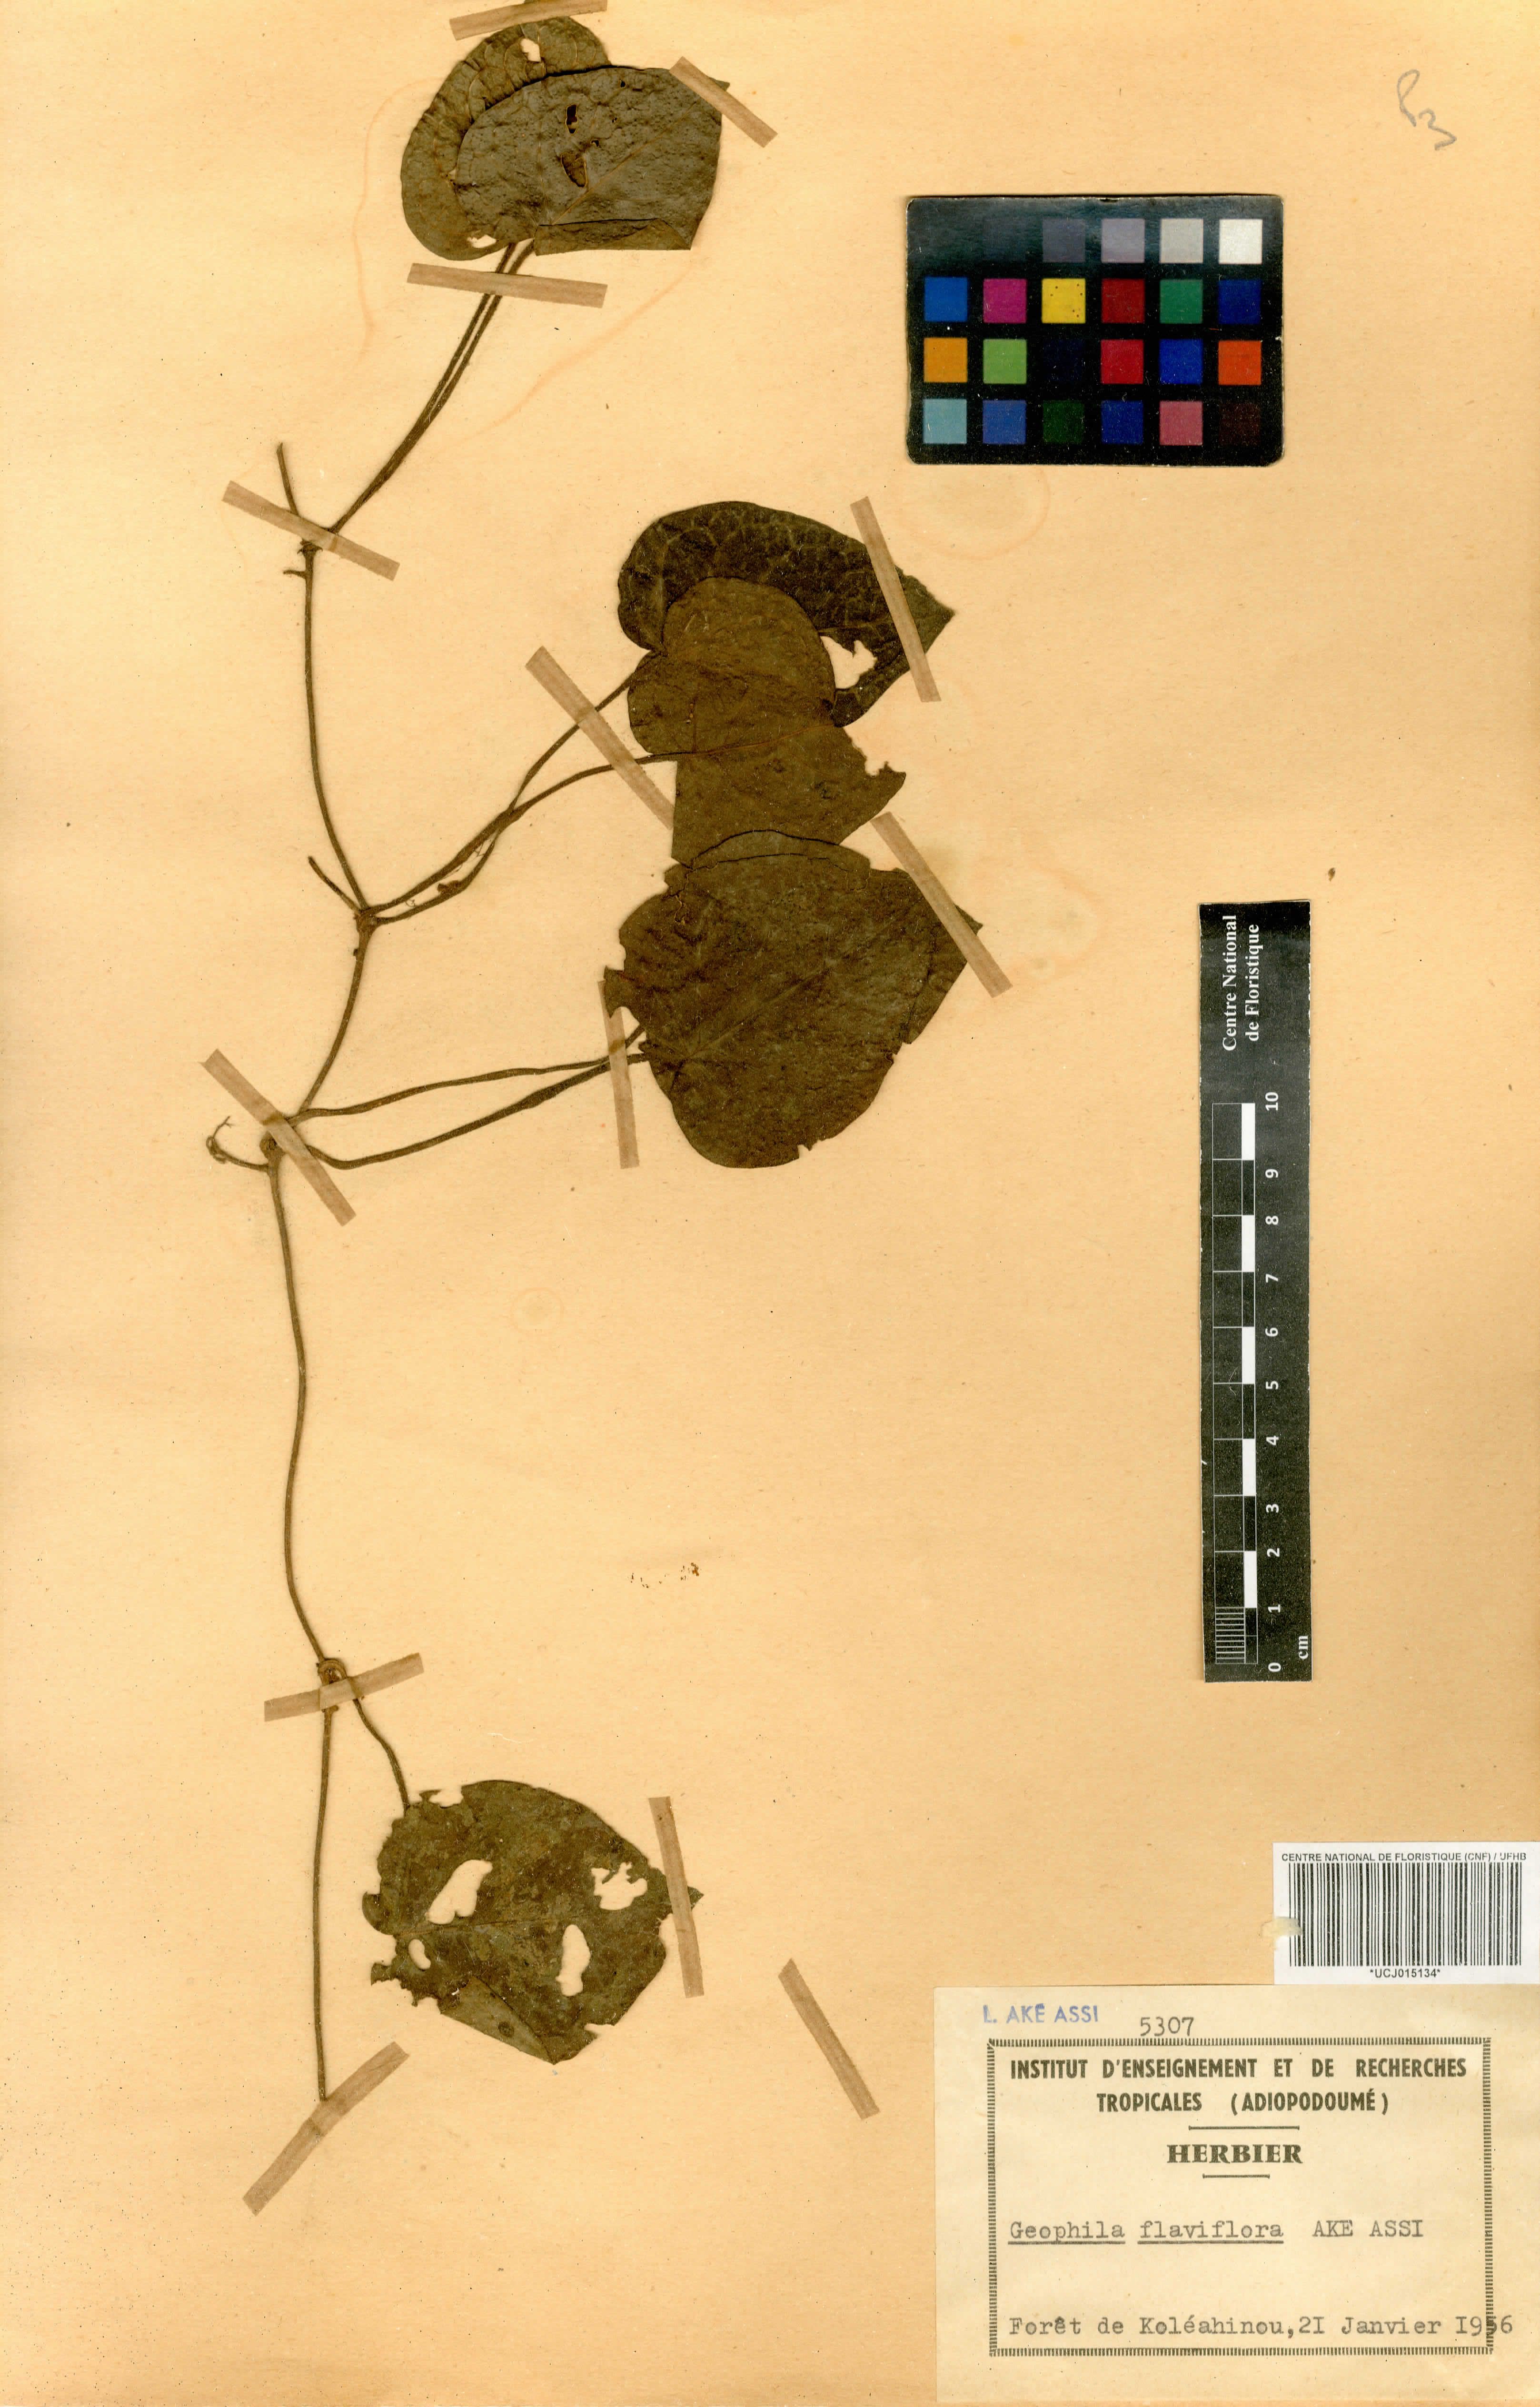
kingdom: Plantae
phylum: Tracheophyta
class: Magnoliopsida
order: Gentianales
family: Rubiaceae
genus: Geophila
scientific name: Geophila flaviflora
